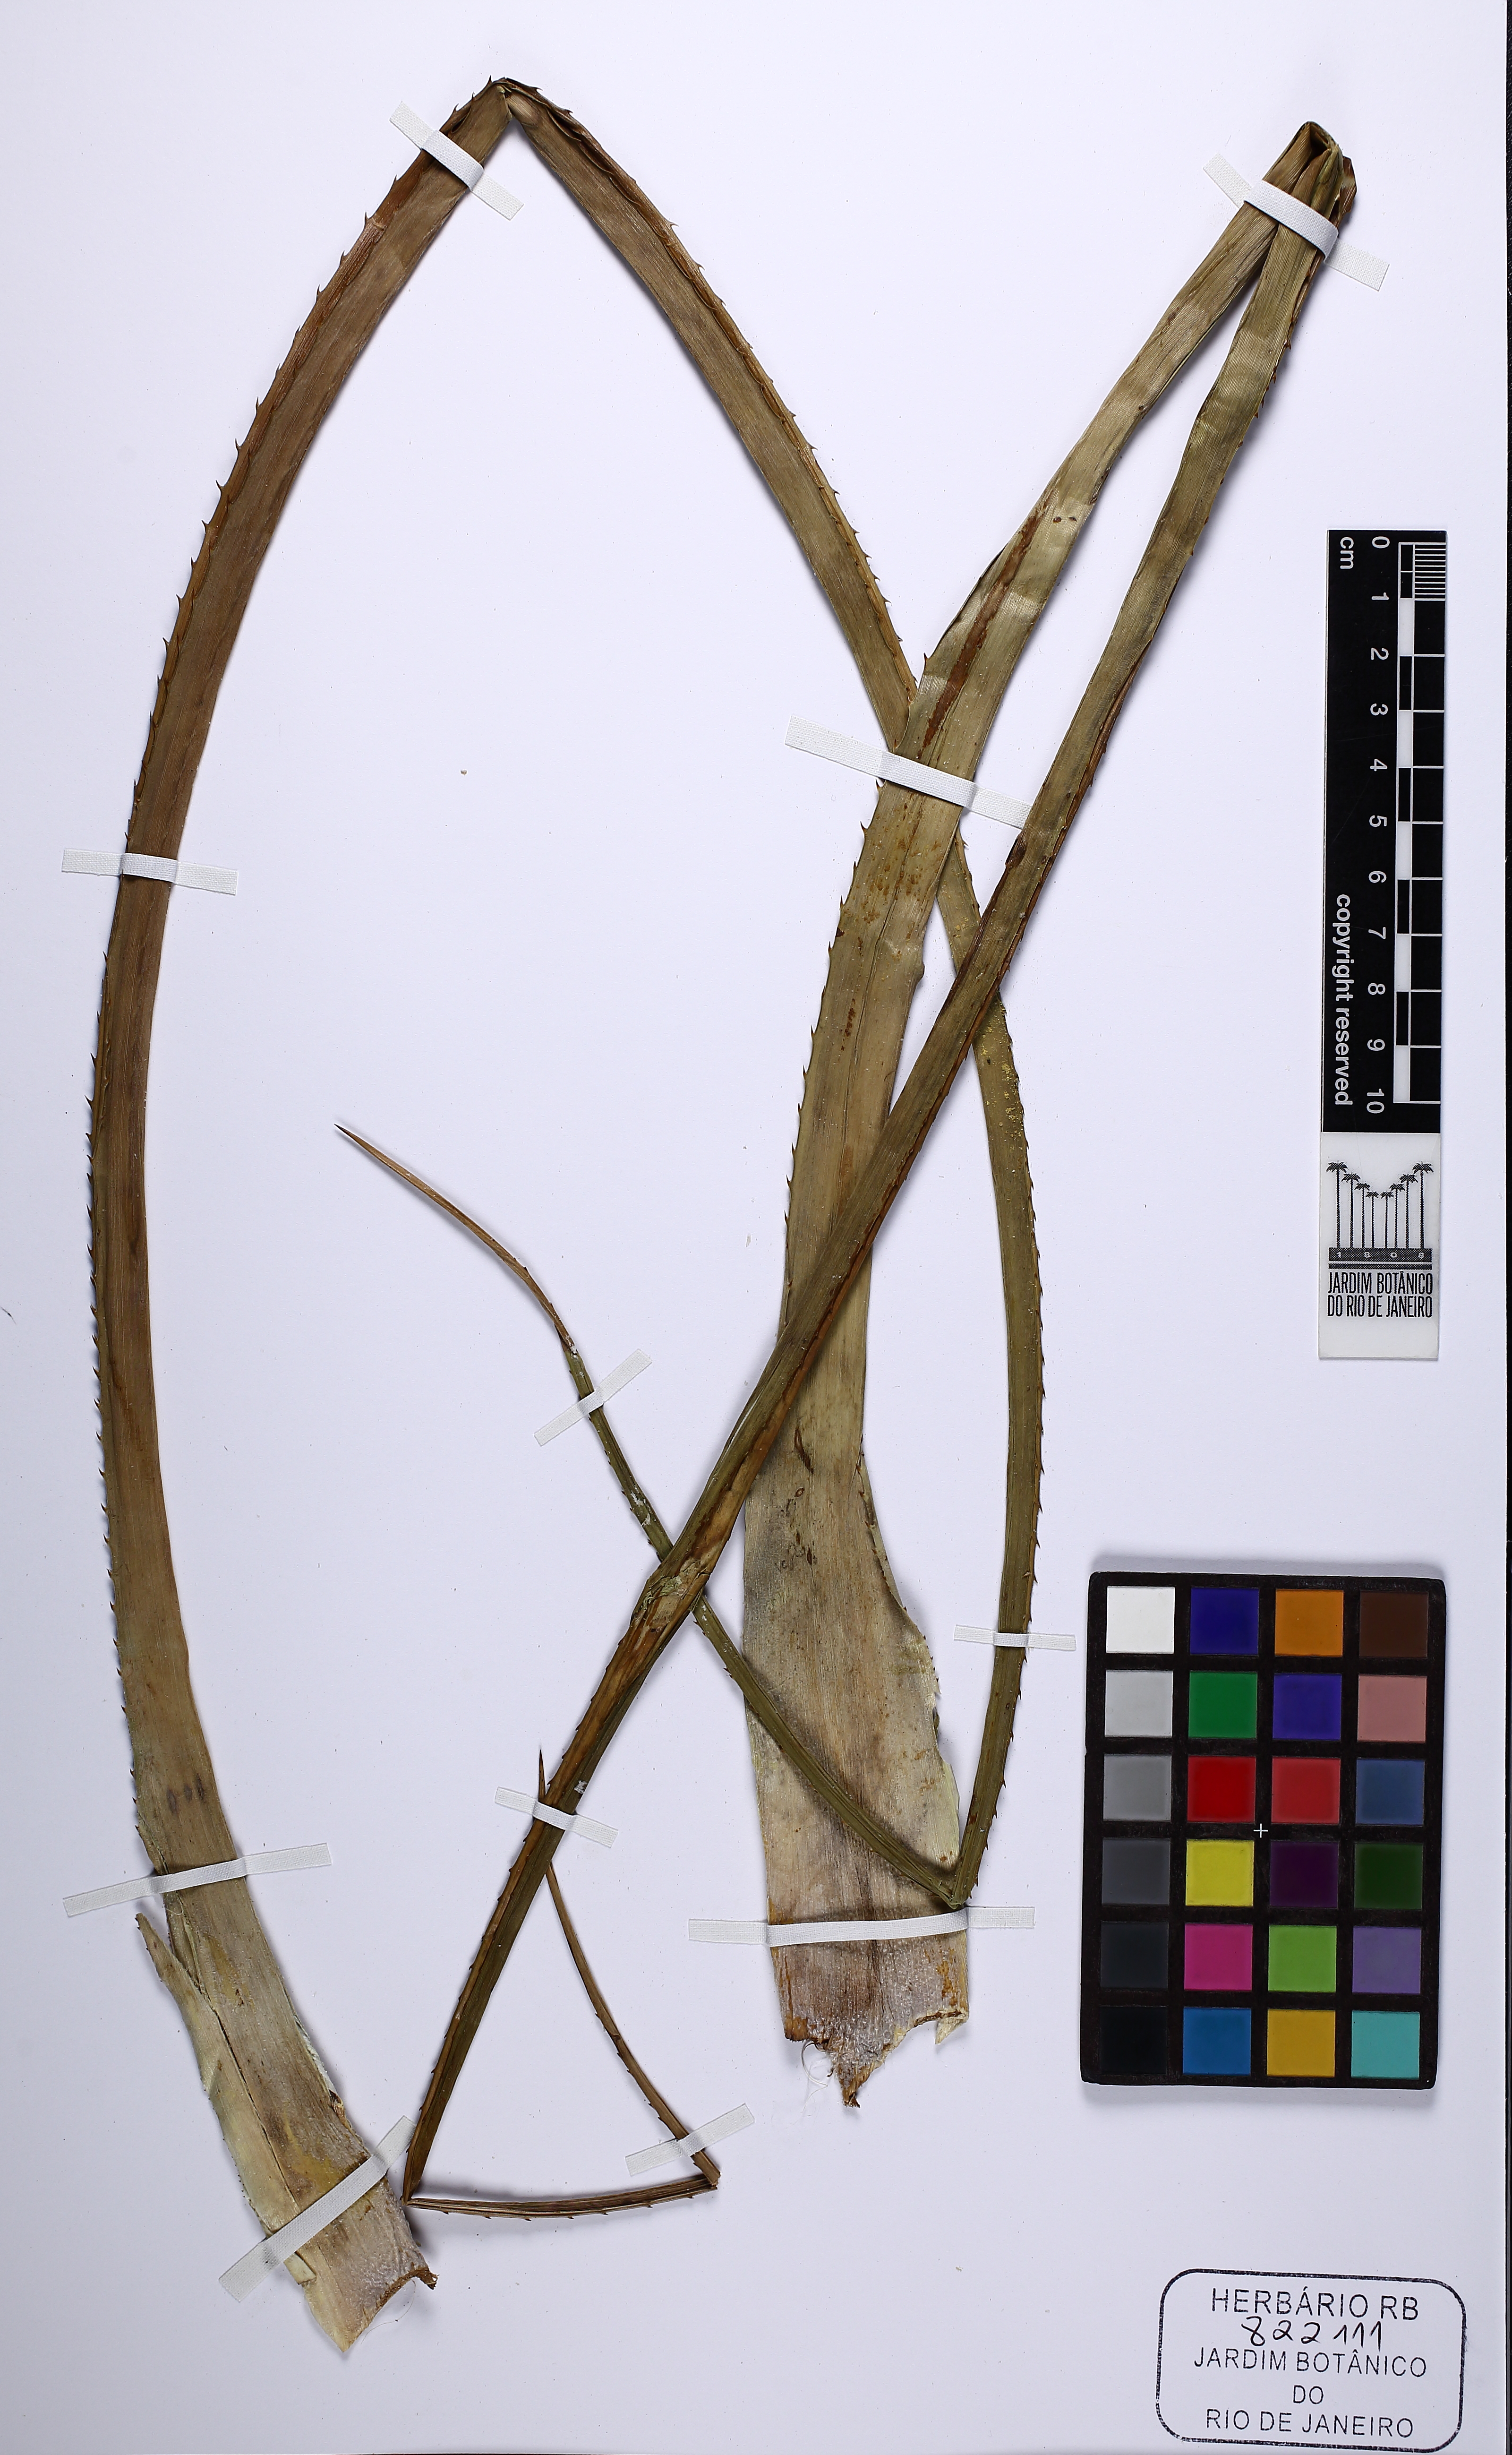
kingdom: Plantae
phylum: Tracheophyta
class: Liliopsida
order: Poales
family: Bromeliaceae
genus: Ananas
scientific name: Ananas comosus
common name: Pineapple
